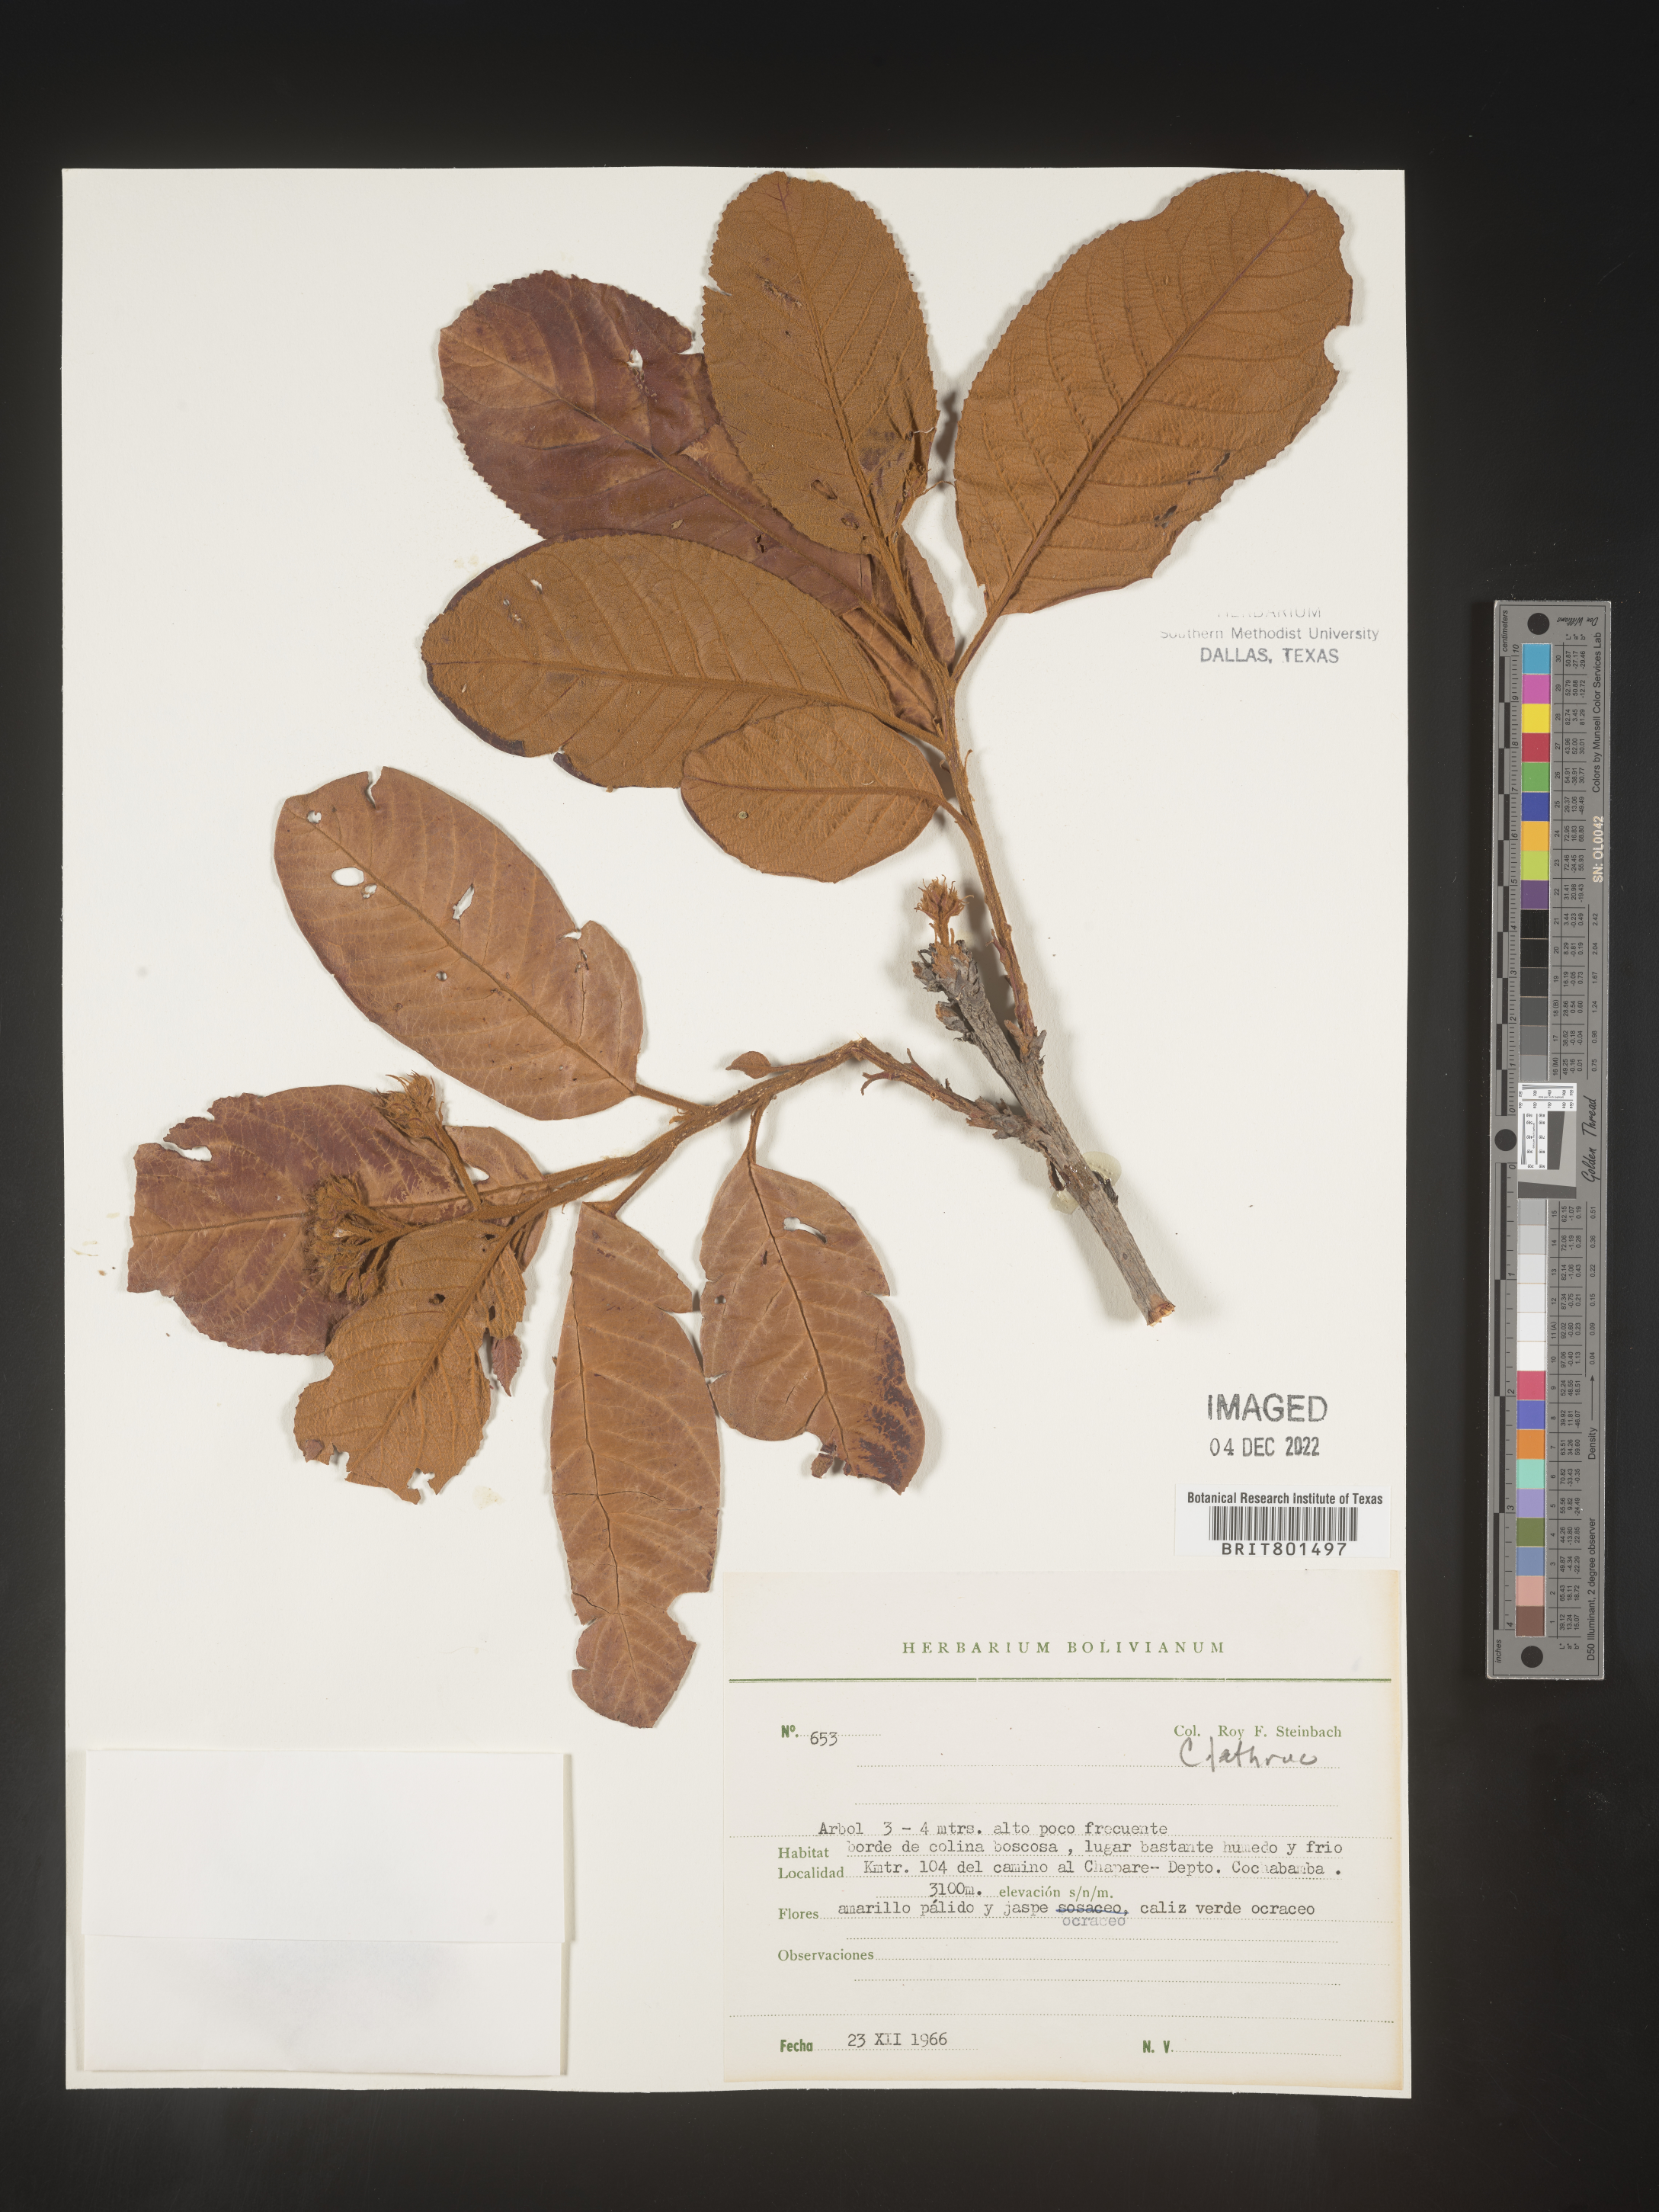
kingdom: Plantae
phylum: Tracheophyta
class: Magnoliopsida
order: Ericales
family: Clethraceae
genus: Clethra
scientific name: Clethra
